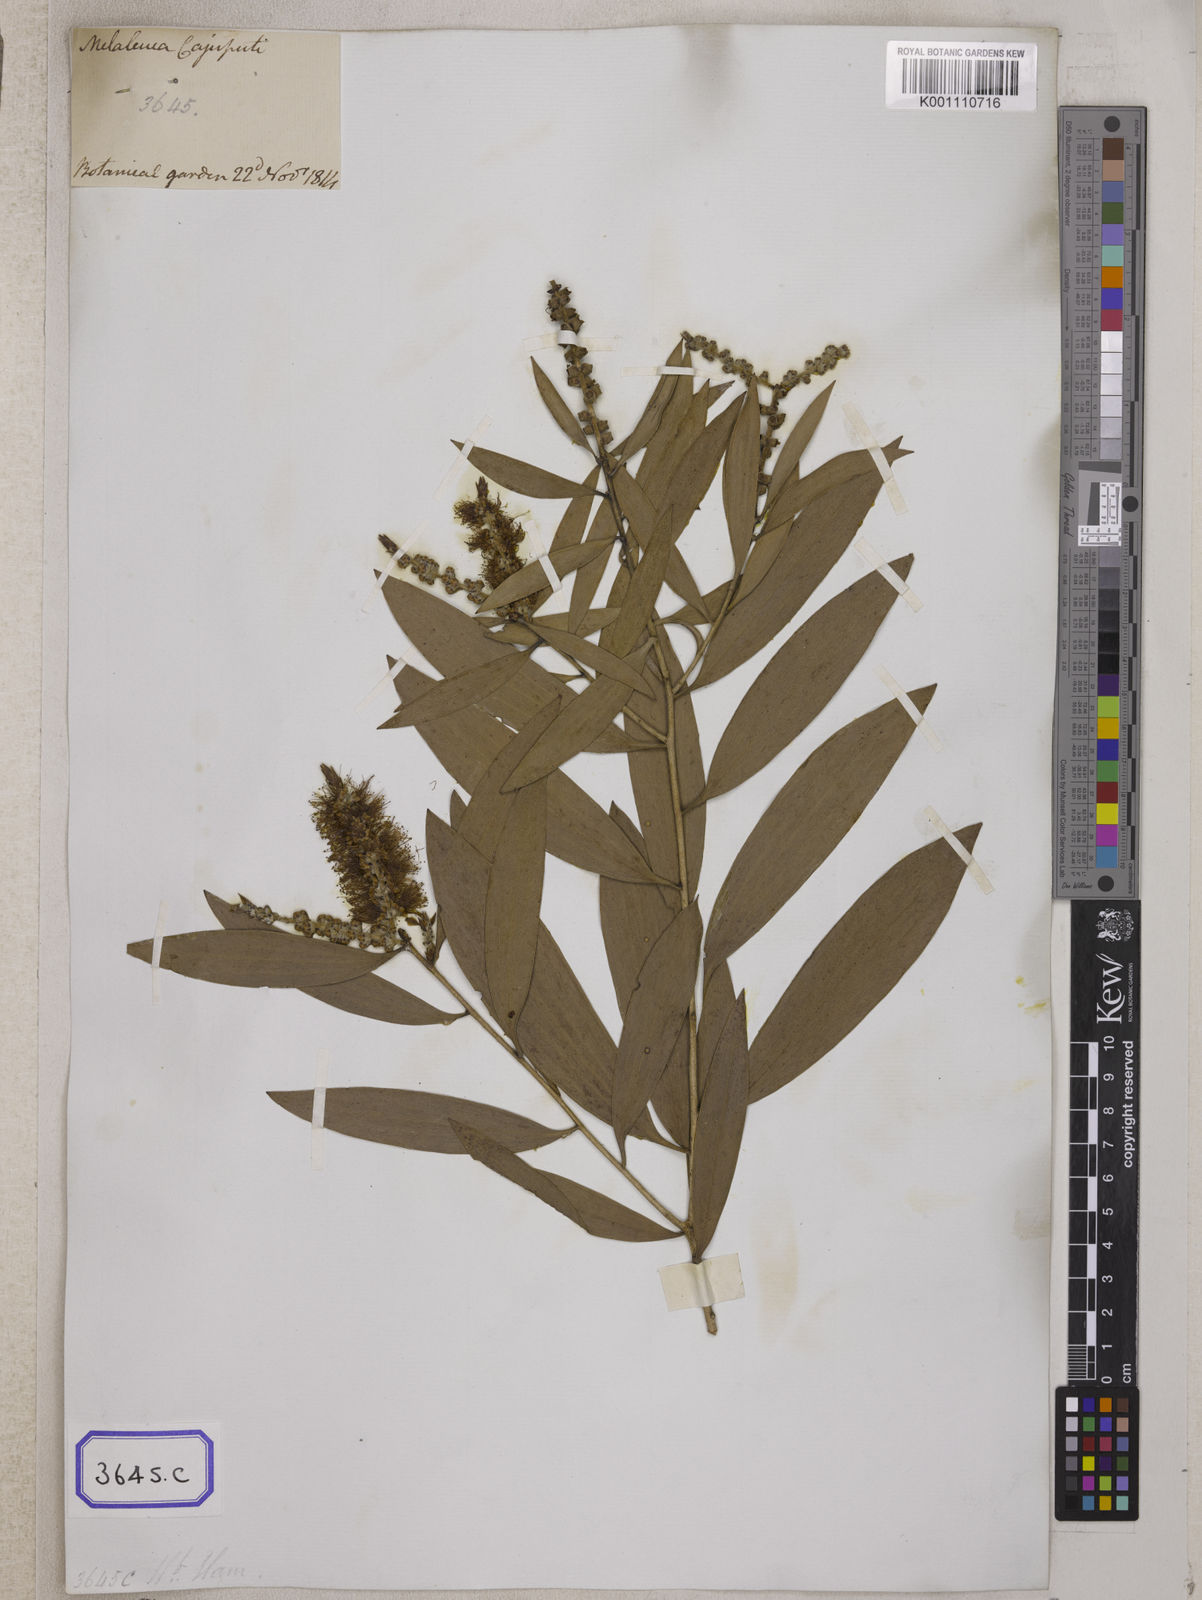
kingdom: Plantae
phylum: Tracheophyta
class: Magnoliopsida
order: Myrtales
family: Myrtaceae
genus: Melaleuca
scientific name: Melaleuca cajuputi
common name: Cajuput
